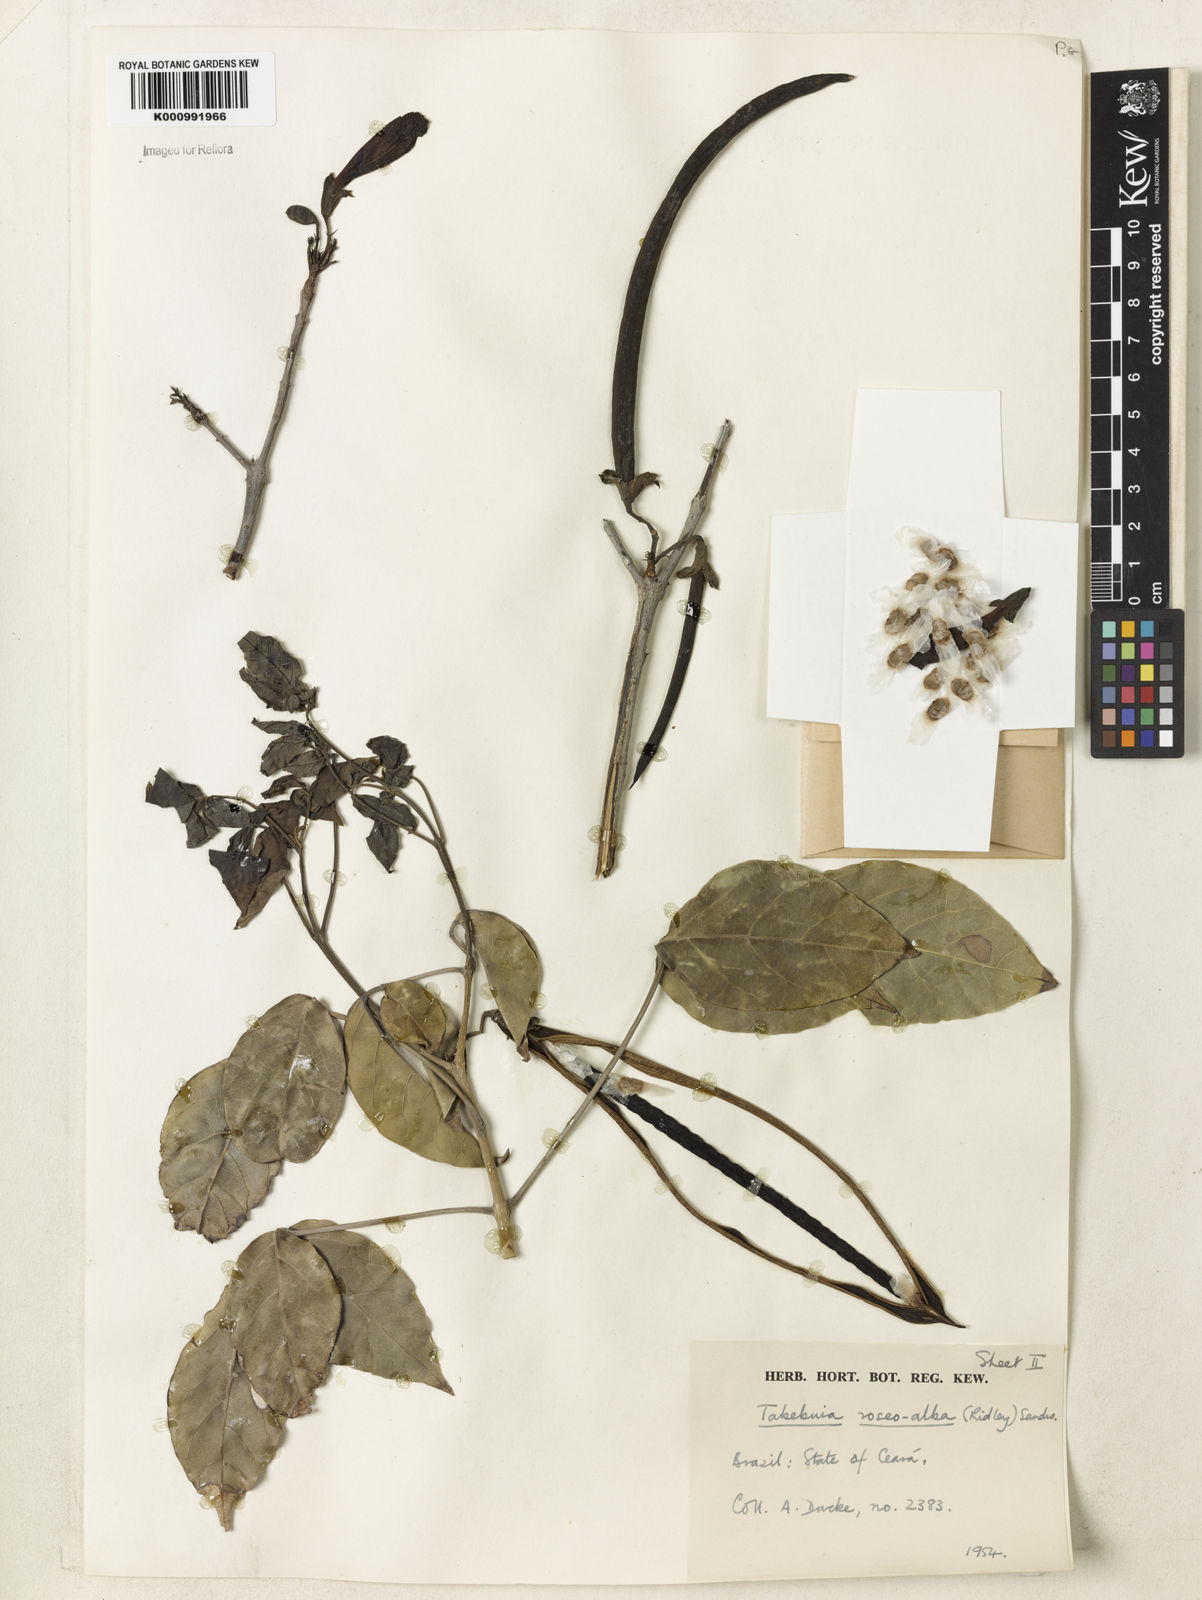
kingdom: Plantae
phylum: Tracheophyta
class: Magnoliopsida
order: Lamiales
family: Bignoniaceae
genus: Tabebuia
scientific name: Tabebuia roseoalba
